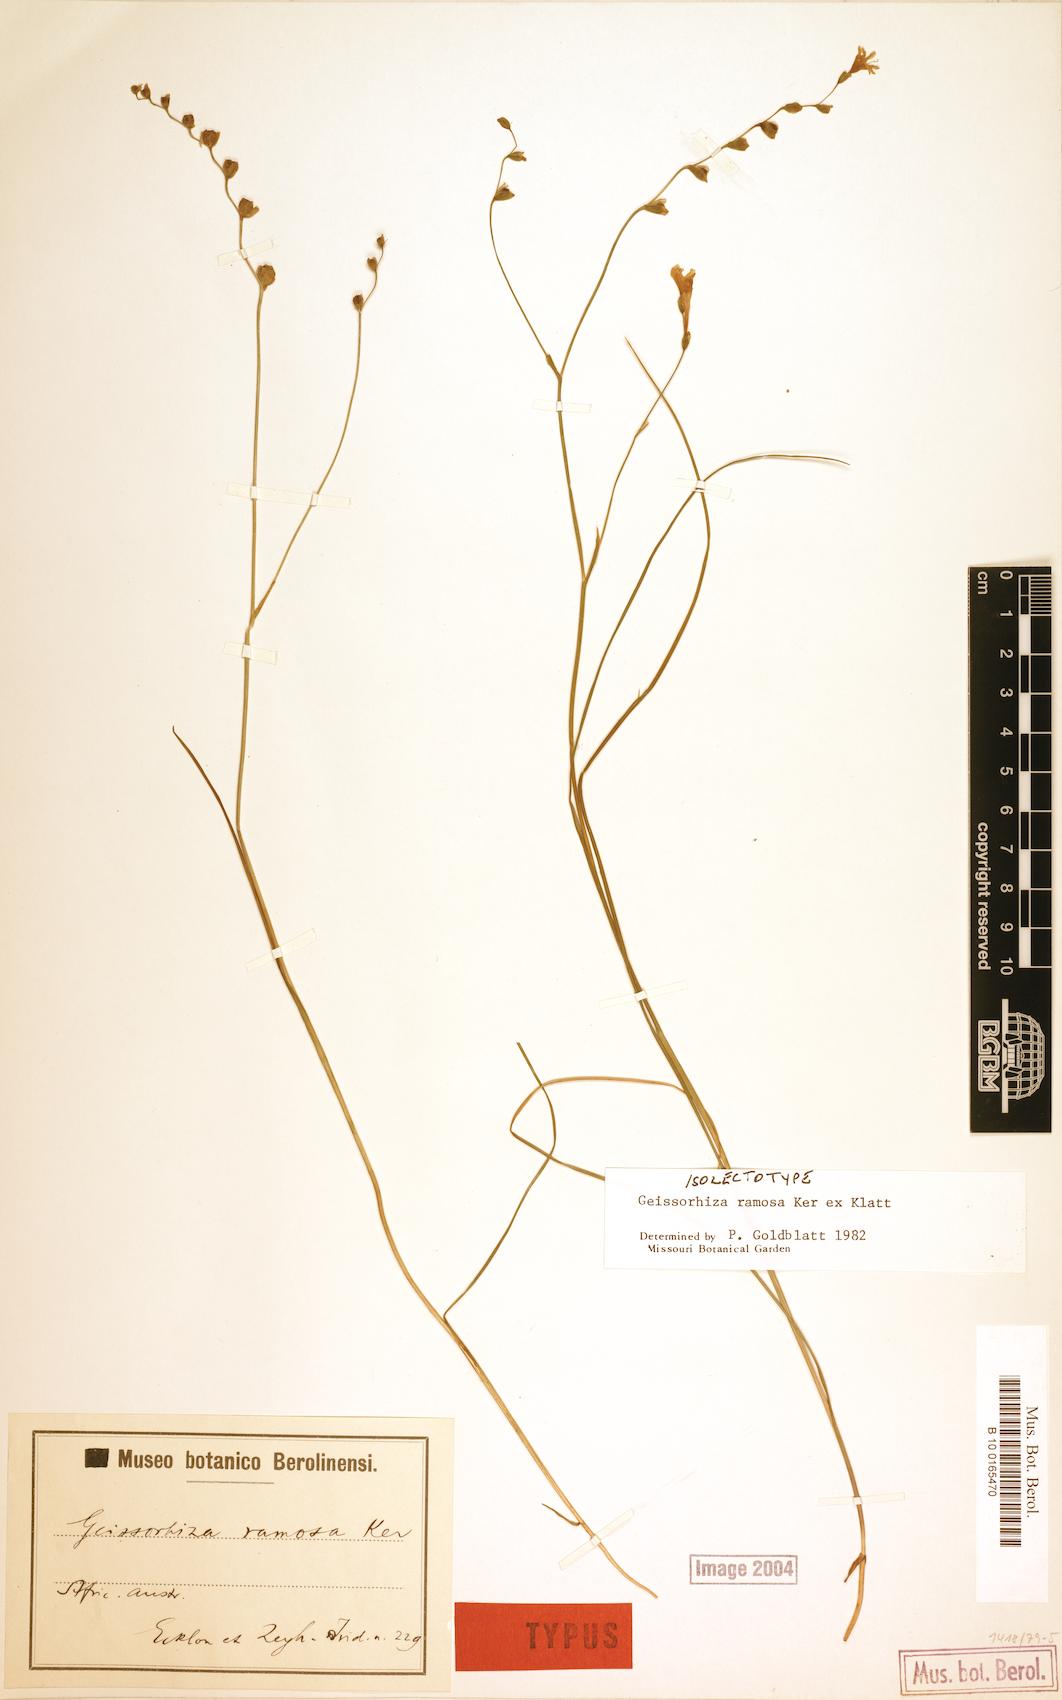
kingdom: Plantae
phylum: Tracheophyta
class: Liliopsida
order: Asparagales
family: Iridaceae
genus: Geissorhiza
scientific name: Geissorhiza ramosa
